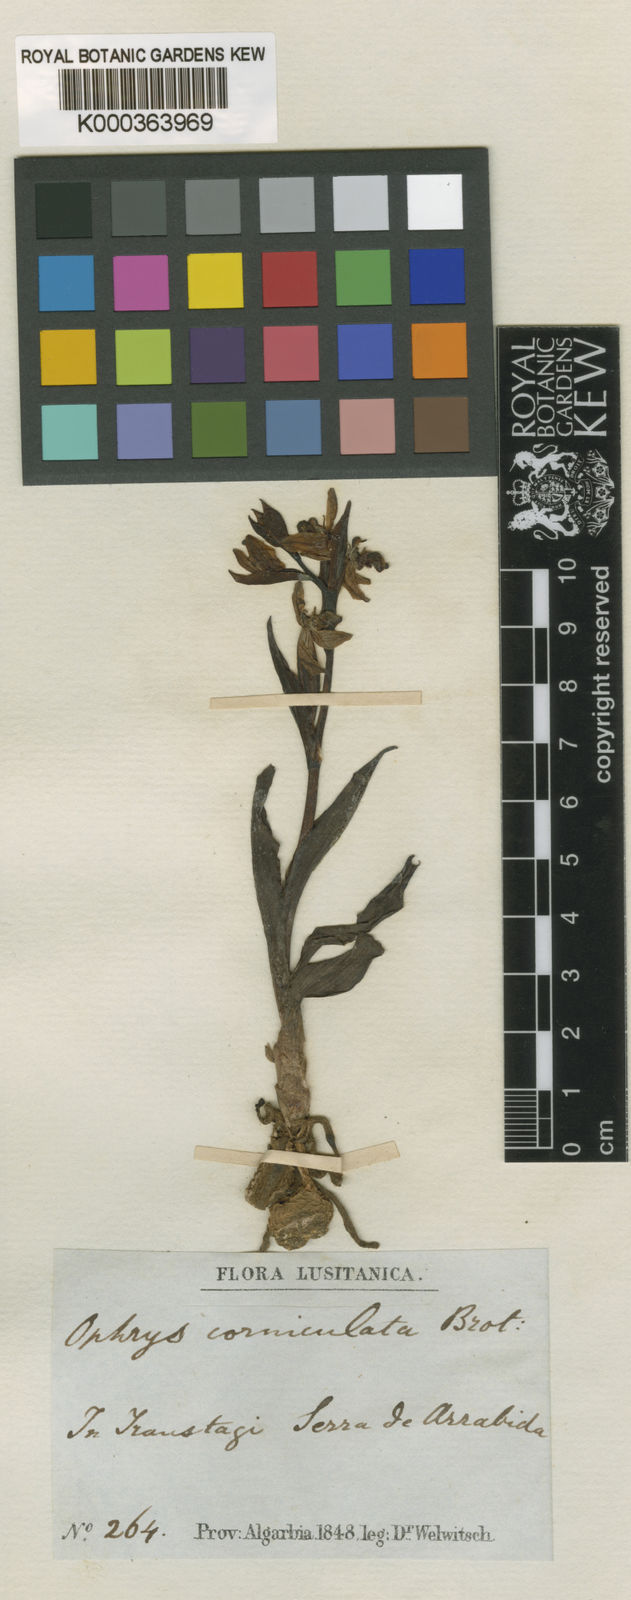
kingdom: Plantae
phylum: Tracheophyta
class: Liliopsida
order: Asparagales
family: Orchidaceae
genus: Ophrys
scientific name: Ophrys scolopax
